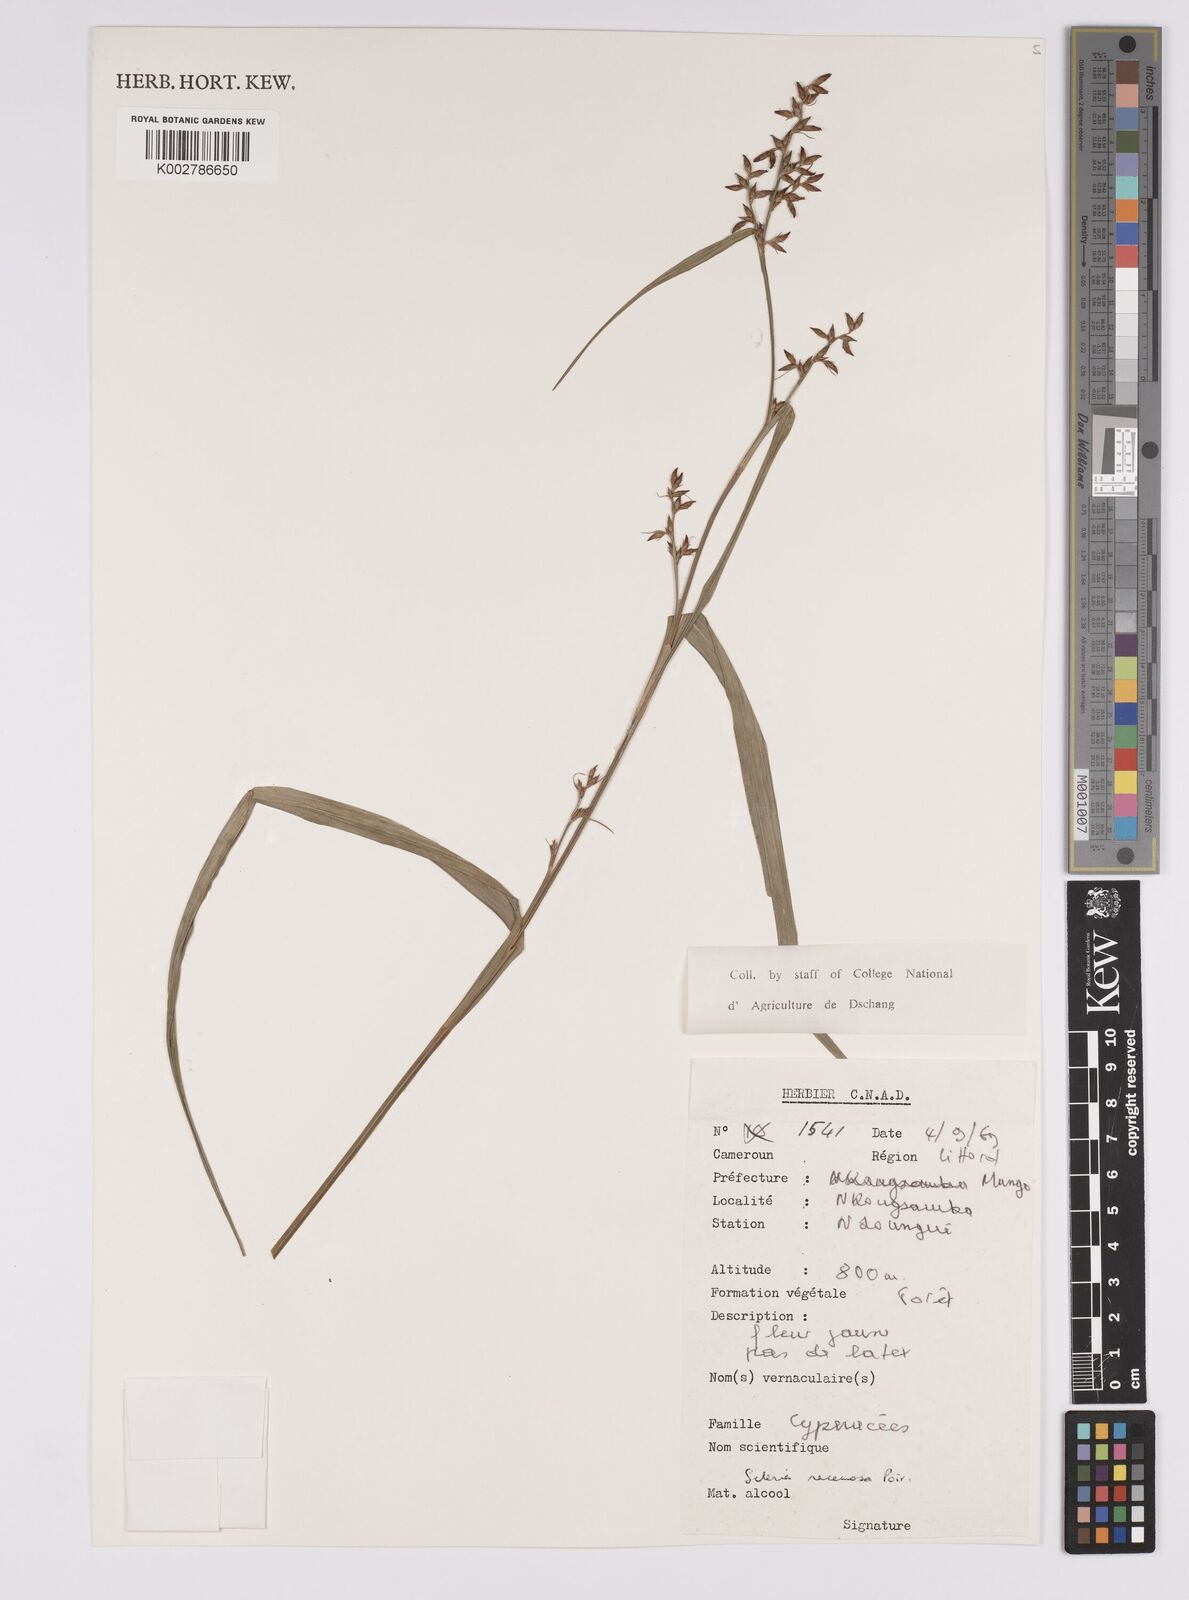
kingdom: Plantae
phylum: Tracheophyta
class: Liliopsida
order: Poales
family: Cyperaceae
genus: Scleria
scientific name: Scleria racemosa
